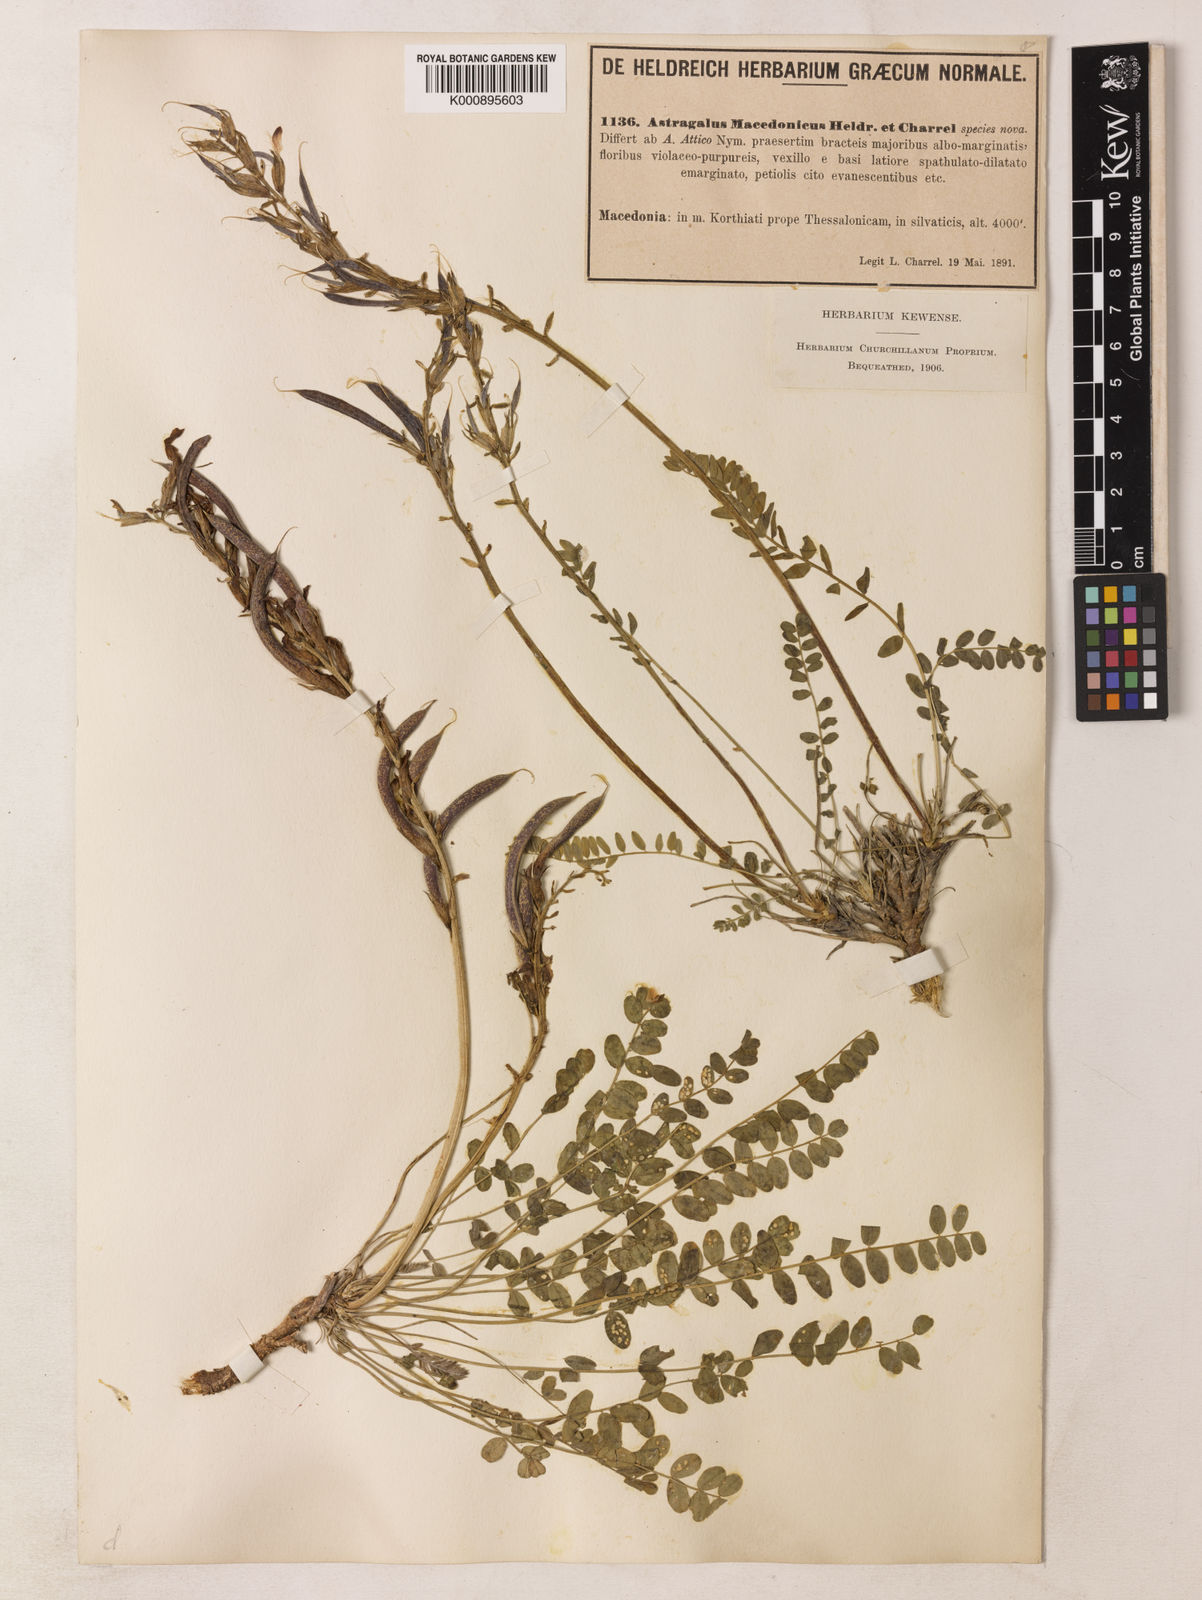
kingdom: Plantae
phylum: Tracheophyta
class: Magnoliopsida
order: Fabales
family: Fabaceae
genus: Astragalus
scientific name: Astragalus monspessulanus
